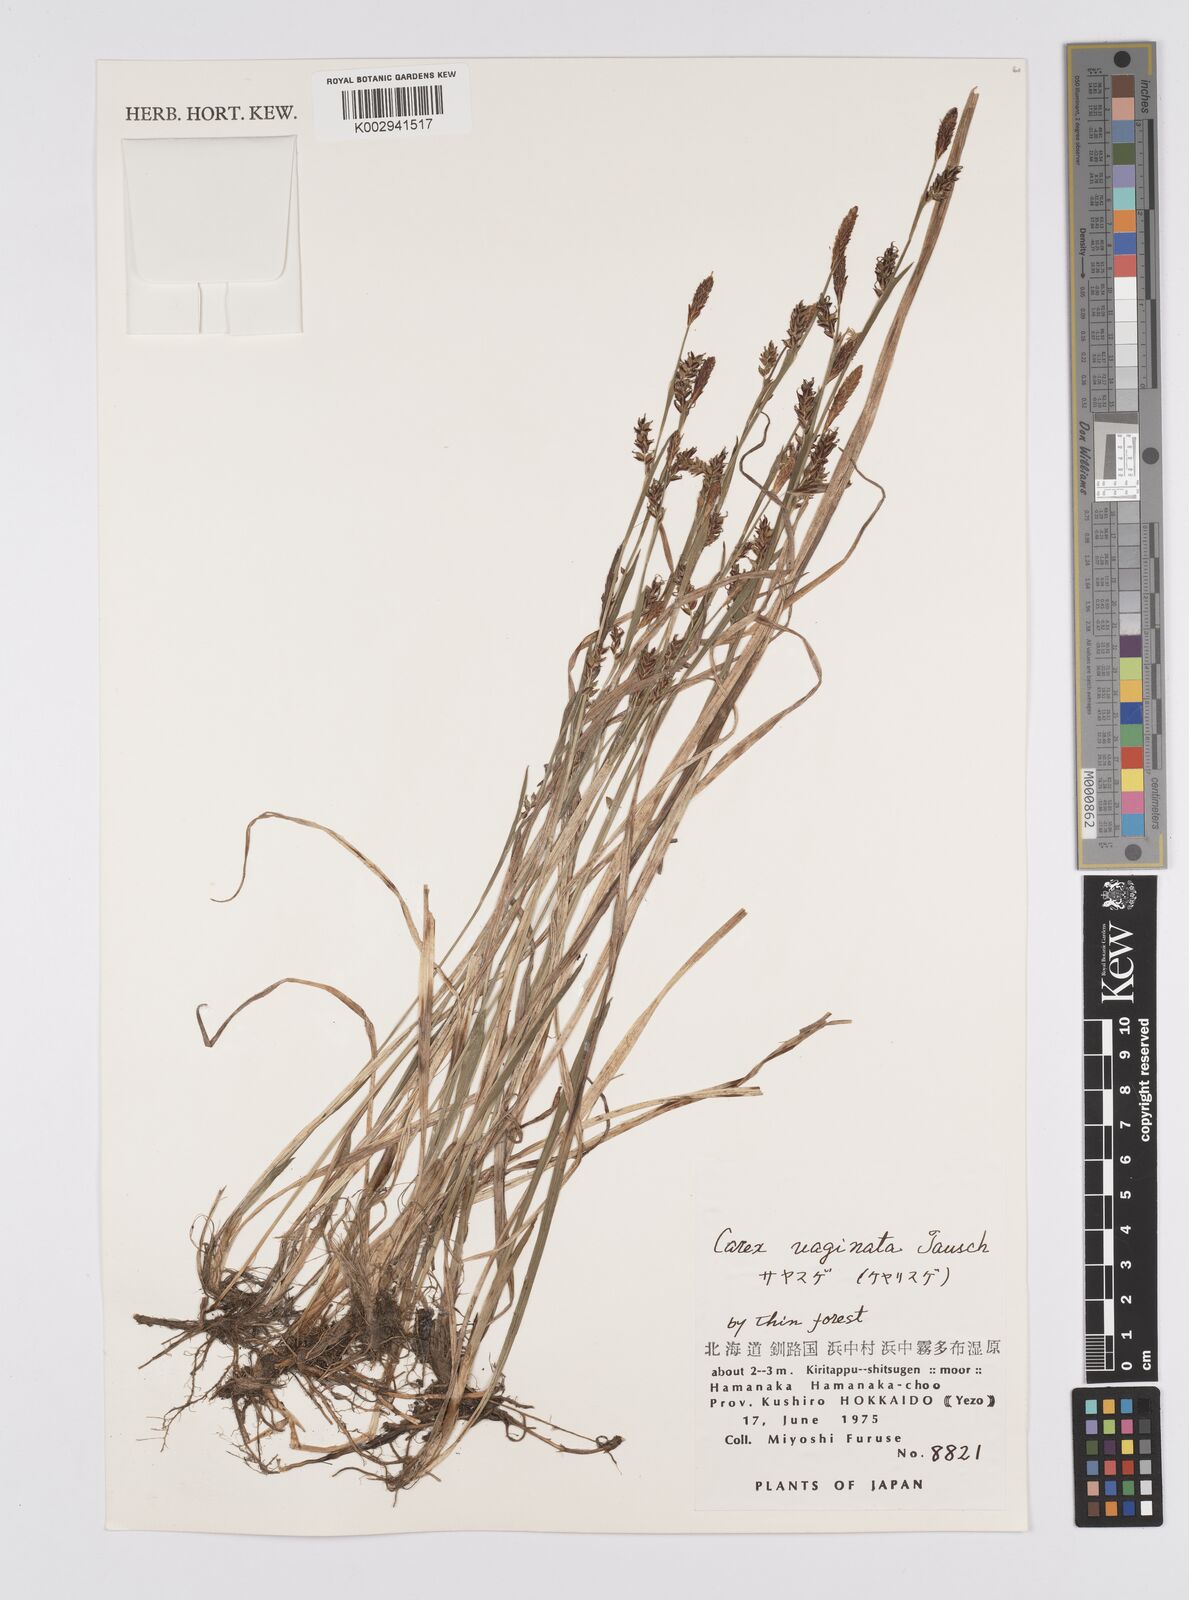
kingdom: Plantae
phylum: Tracheophyta
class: Liliopsida
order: Poales
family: Cyperaceae
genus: Carex
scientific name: Carex vaginata
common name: Sheathed sedge
